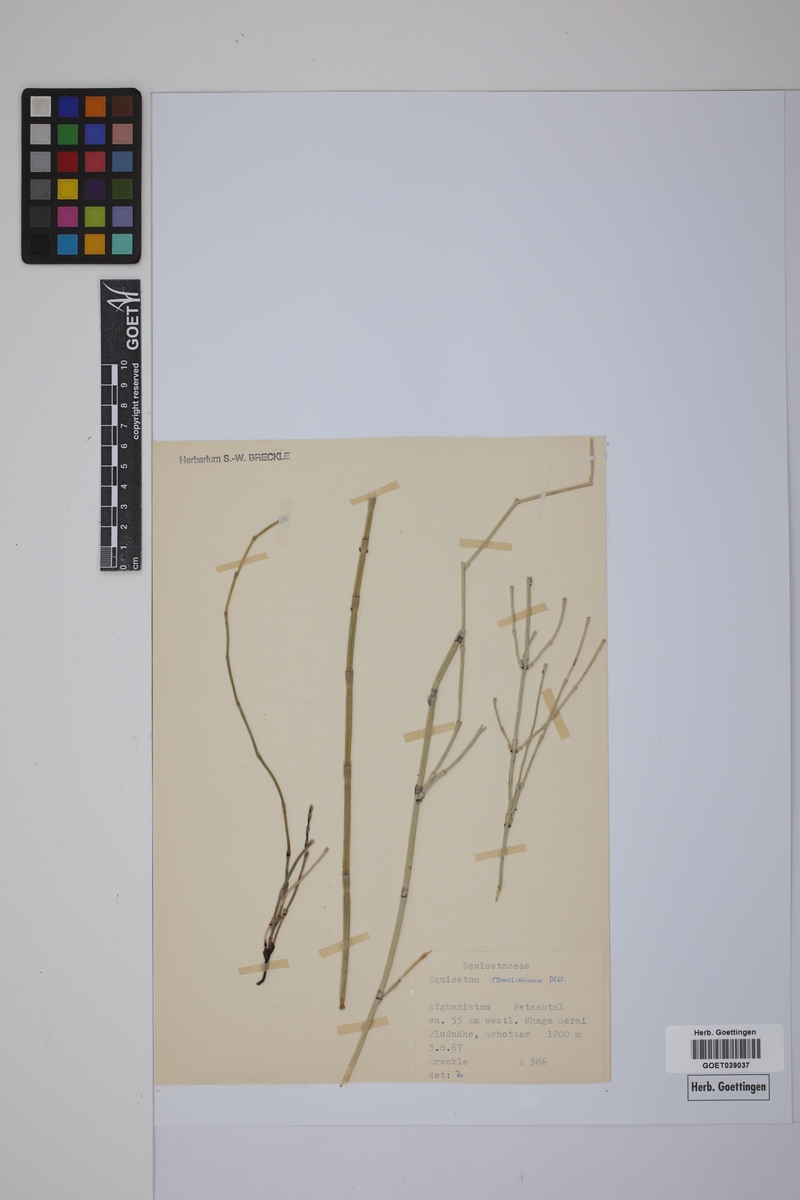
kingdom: Plantae
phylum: Tracheophyta
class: Polypodiopsida
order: Equisetales
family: Equisetaceae
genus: Equisetum
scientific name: Equisetum giganteum
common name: Giant horsetail
